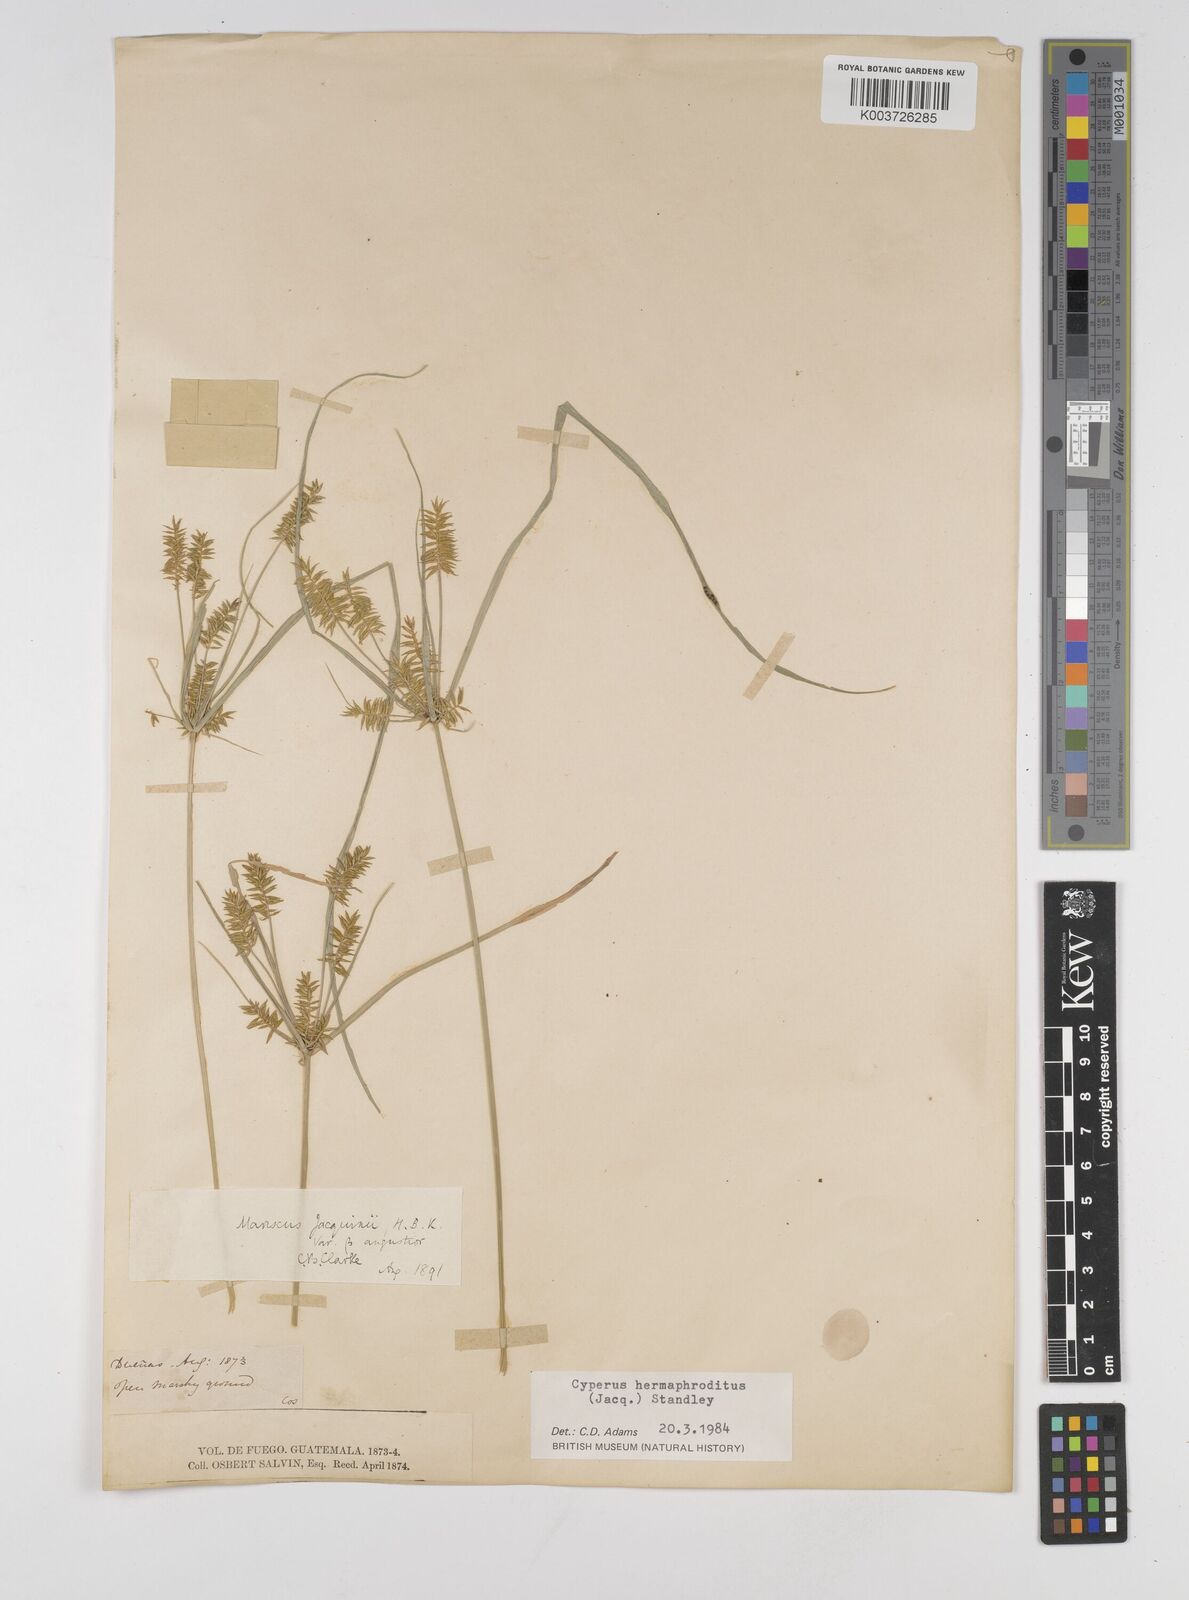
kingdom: Plantae
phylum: Tracheophyta
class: Liliopsida
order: Poales
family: Cyperaceae
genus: Cyperus
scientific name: Cyperus hermaphroditus
